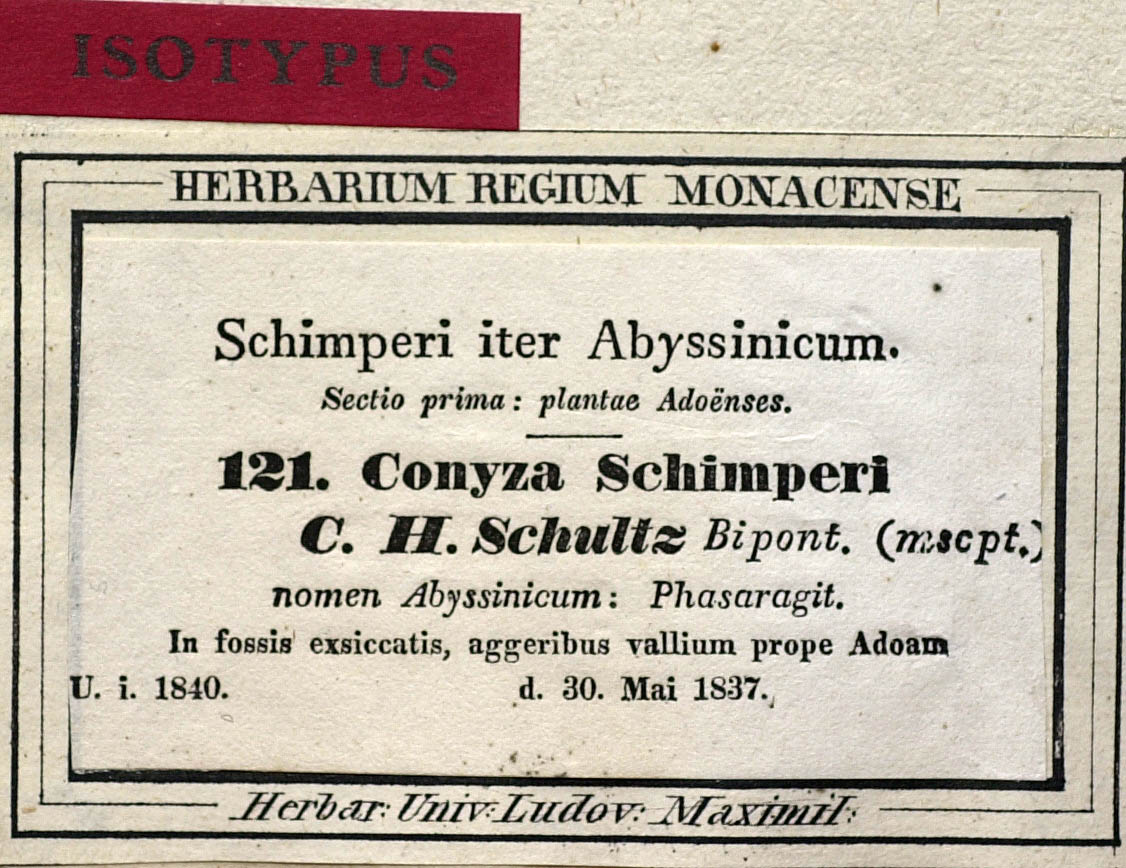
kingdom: Plantae
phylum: Tracheophyta
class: Magnoliopsida
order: Asterales
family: Asteraceae
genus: Conyza
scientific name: Conyza schimperi
